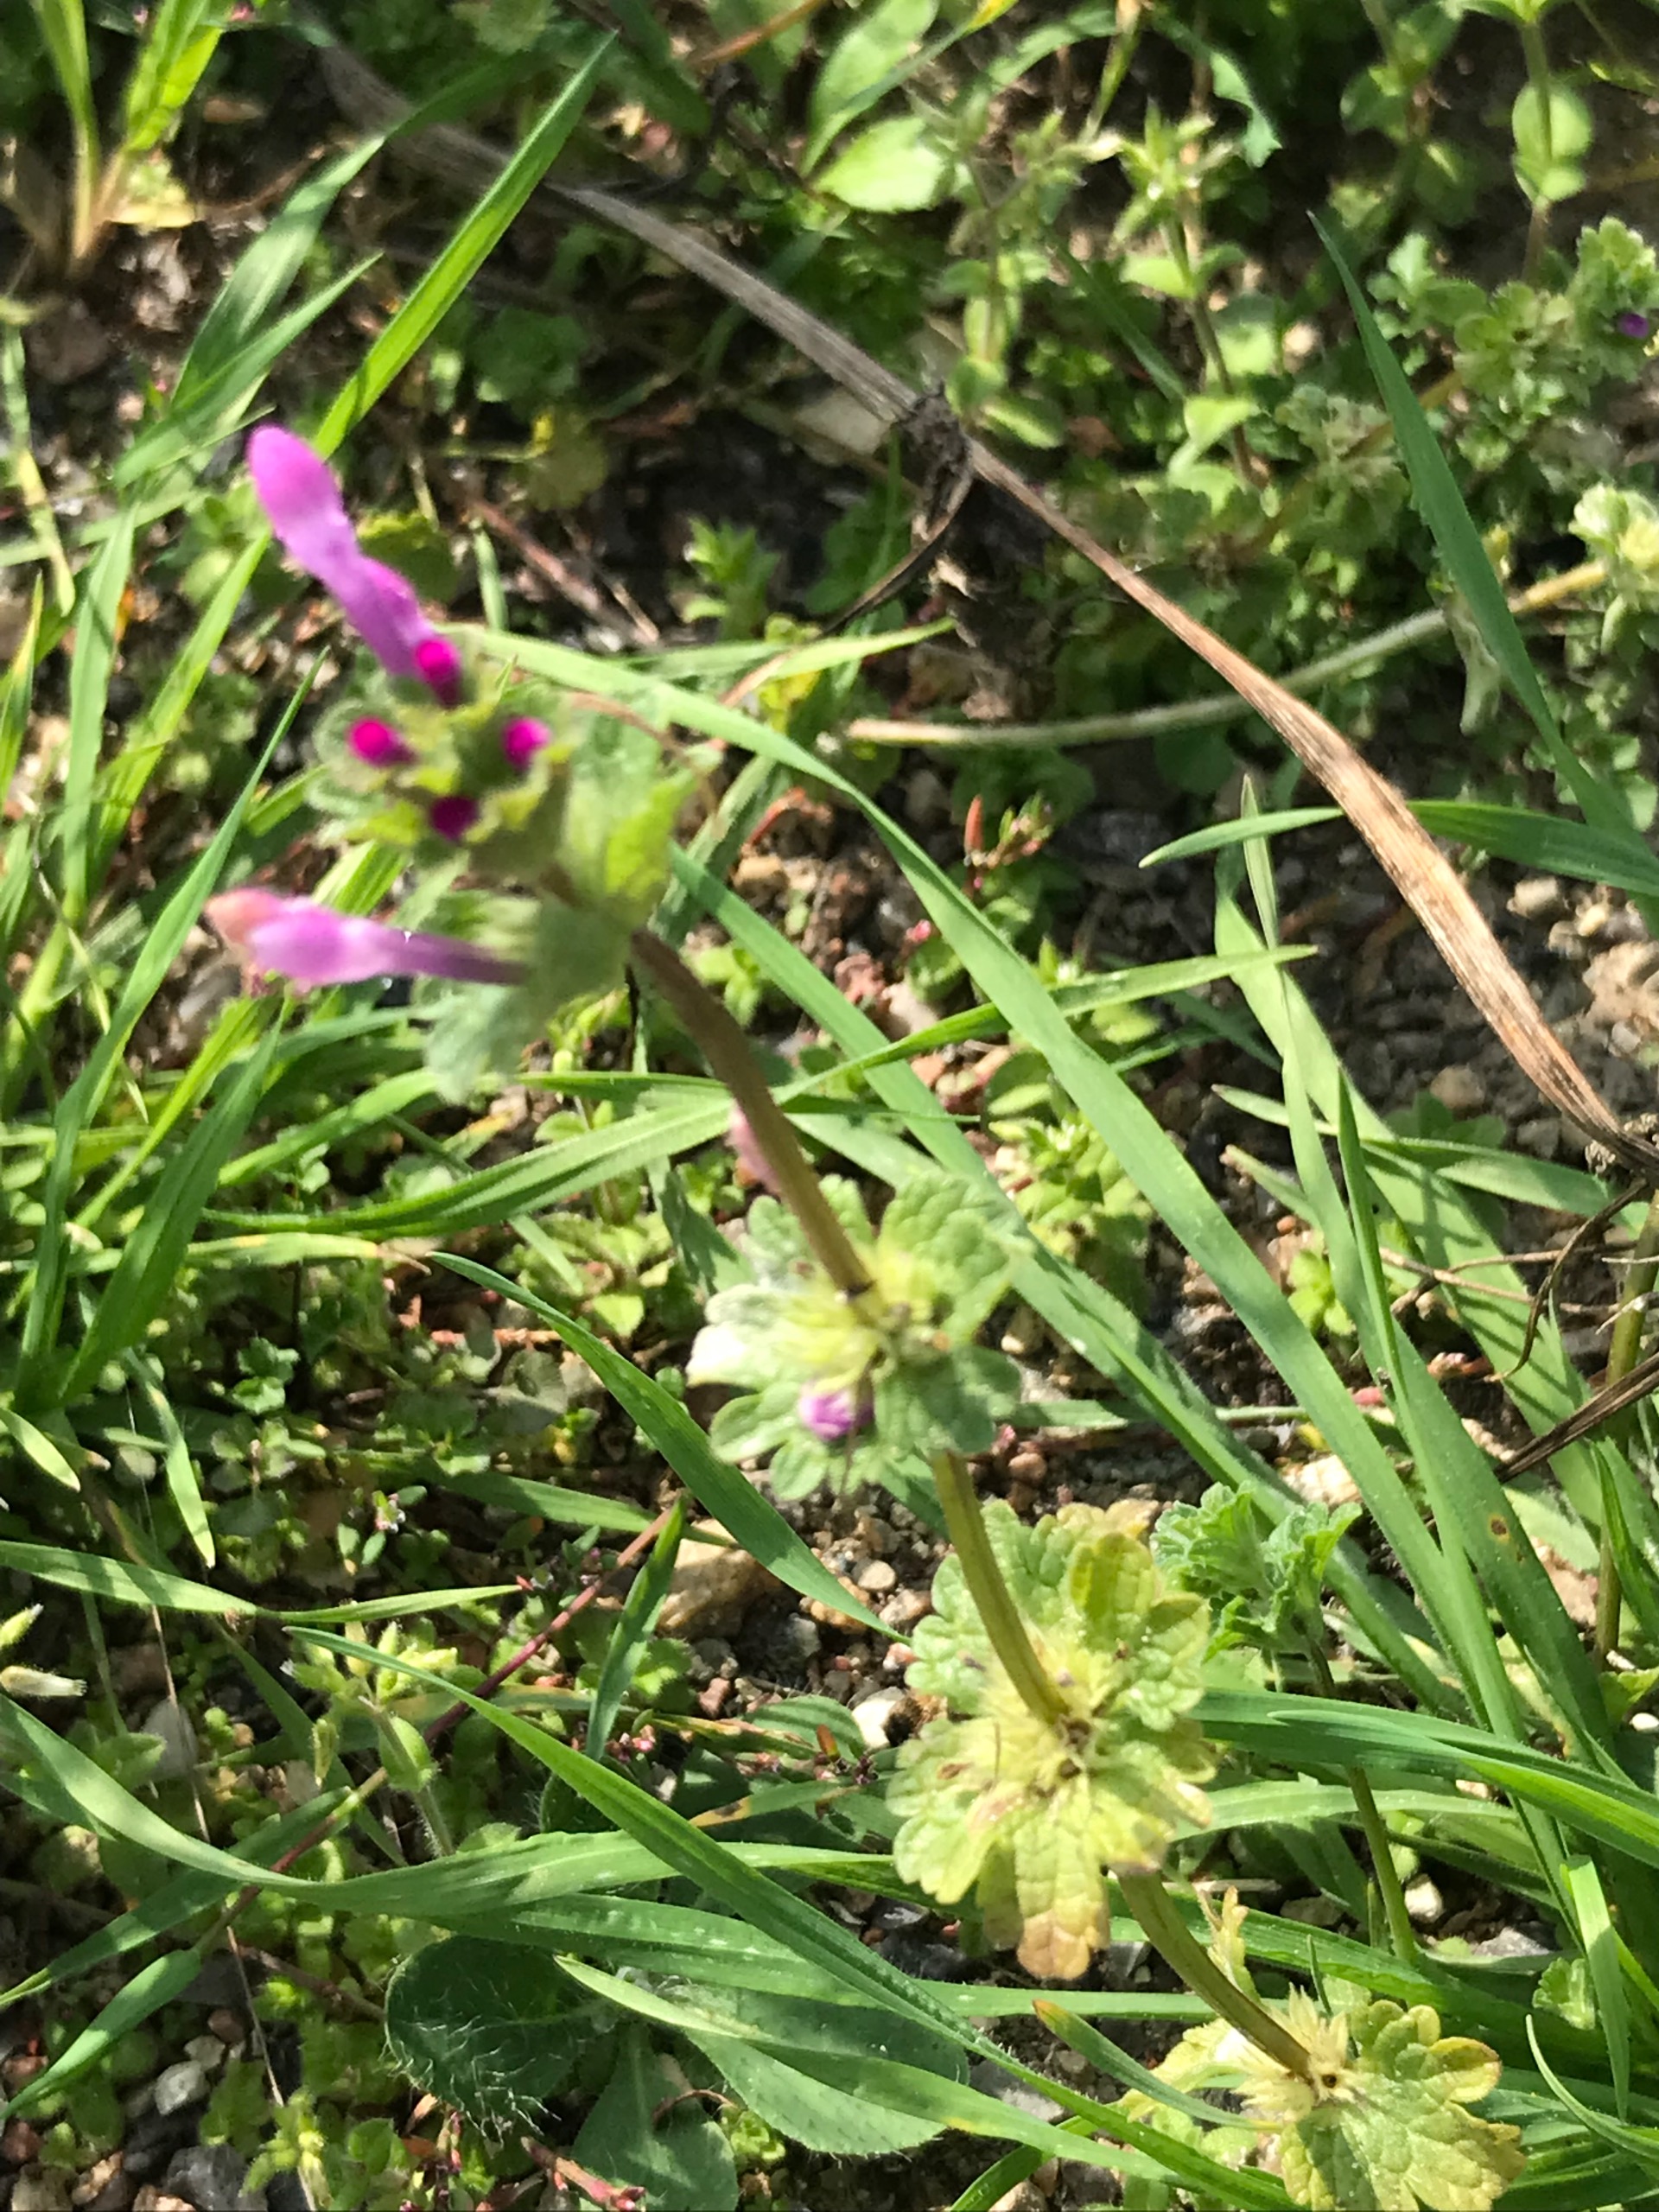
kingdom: Plantae
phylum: Tracheophyta
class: Magnoliopsida
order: Lamiales
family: Lamiaceae
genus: Lamium
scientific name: Lamium amplexicaule
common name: Liden tvetand
